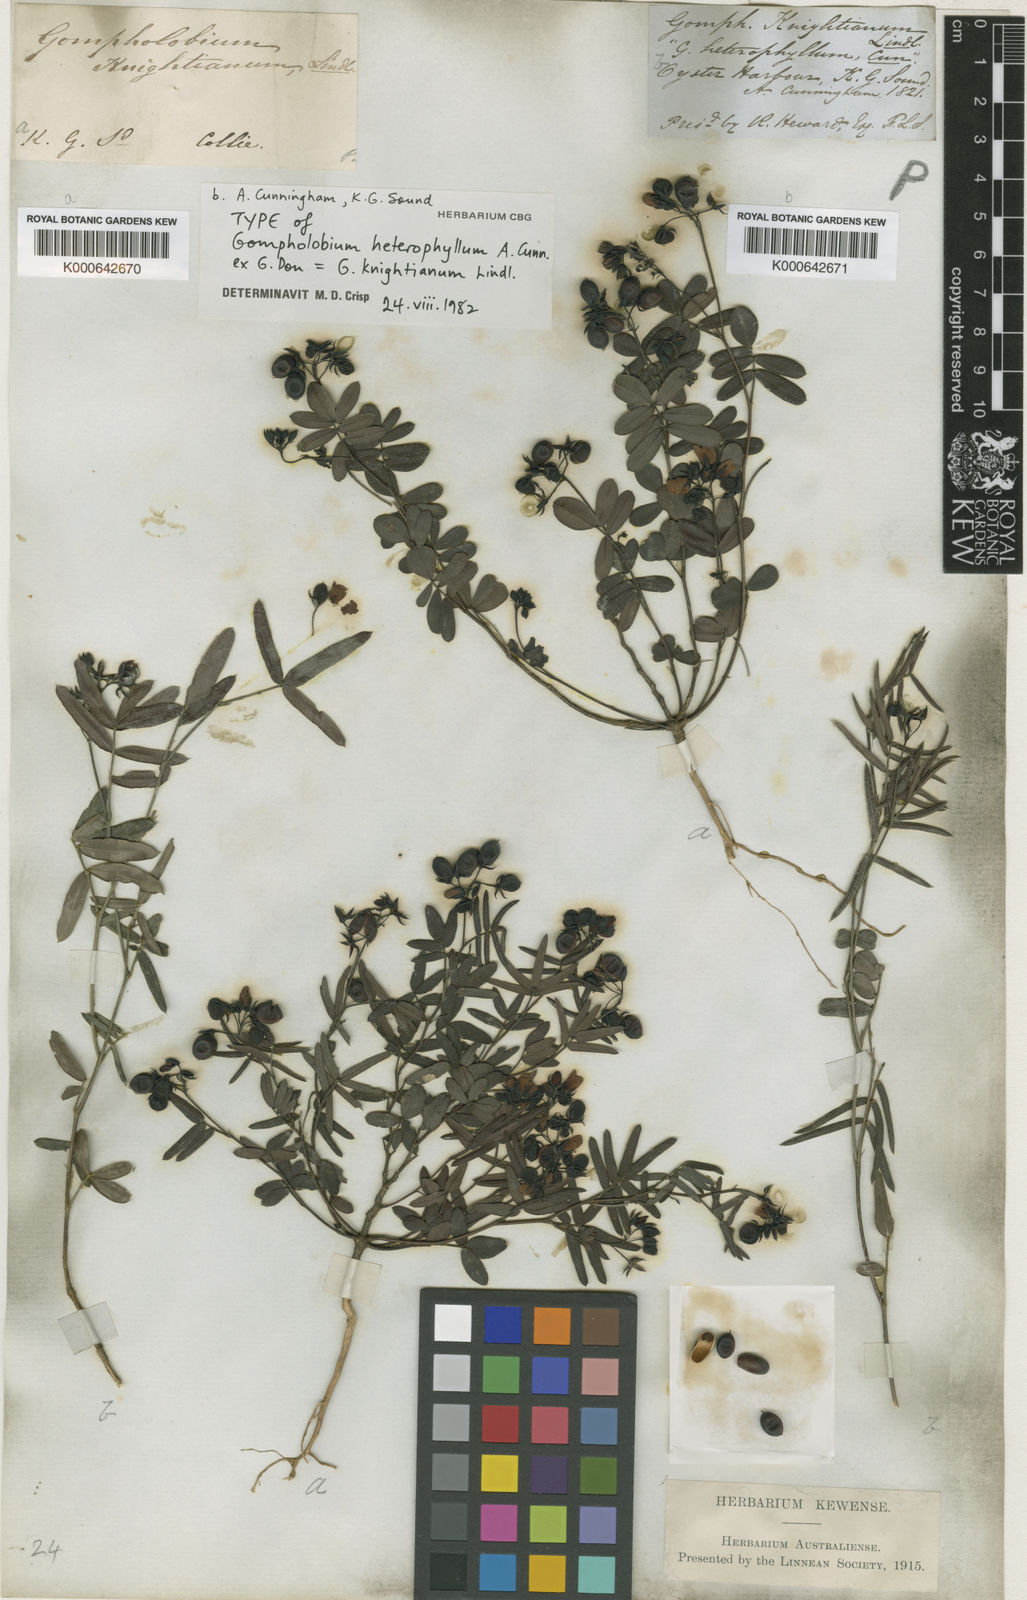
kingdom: Plantae
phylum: Tracheophyta
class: Magnoliopsida
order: Fabales
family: Fabaceae
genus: Gompholobium
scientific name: Gompholobium knightianum
